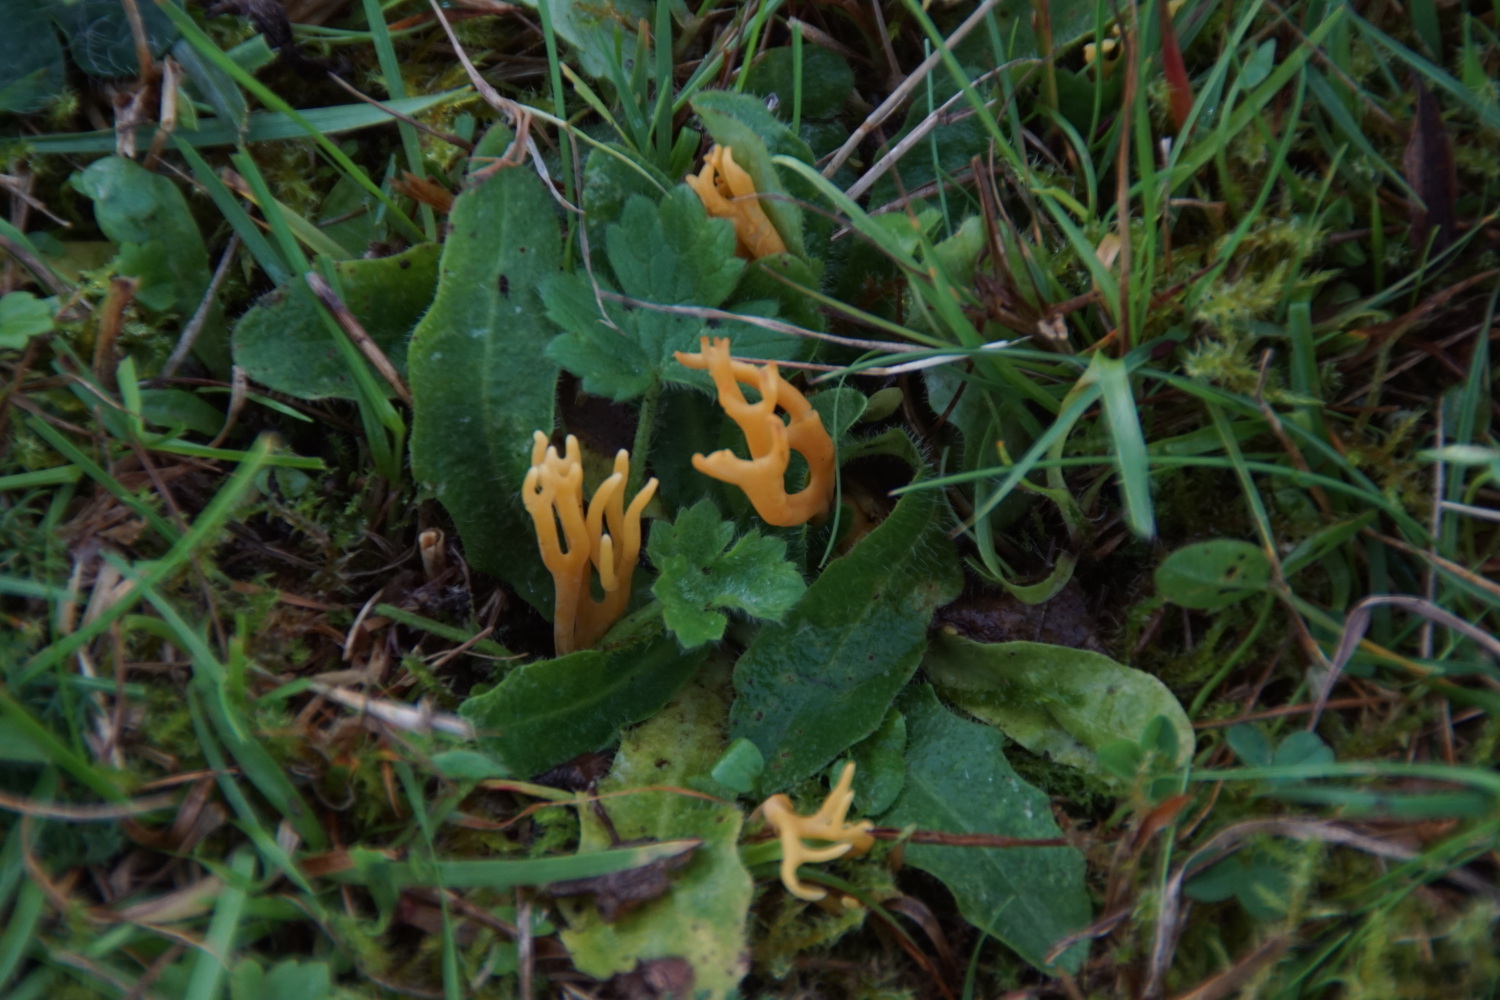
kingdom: Fungi
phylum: Basidiomycota
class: Agaricomycetes
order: Agaricales
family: Clavariaceae
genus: Clavulinopsis
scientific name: Clavulinopsis corniculata
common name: eng-køllesvamp
